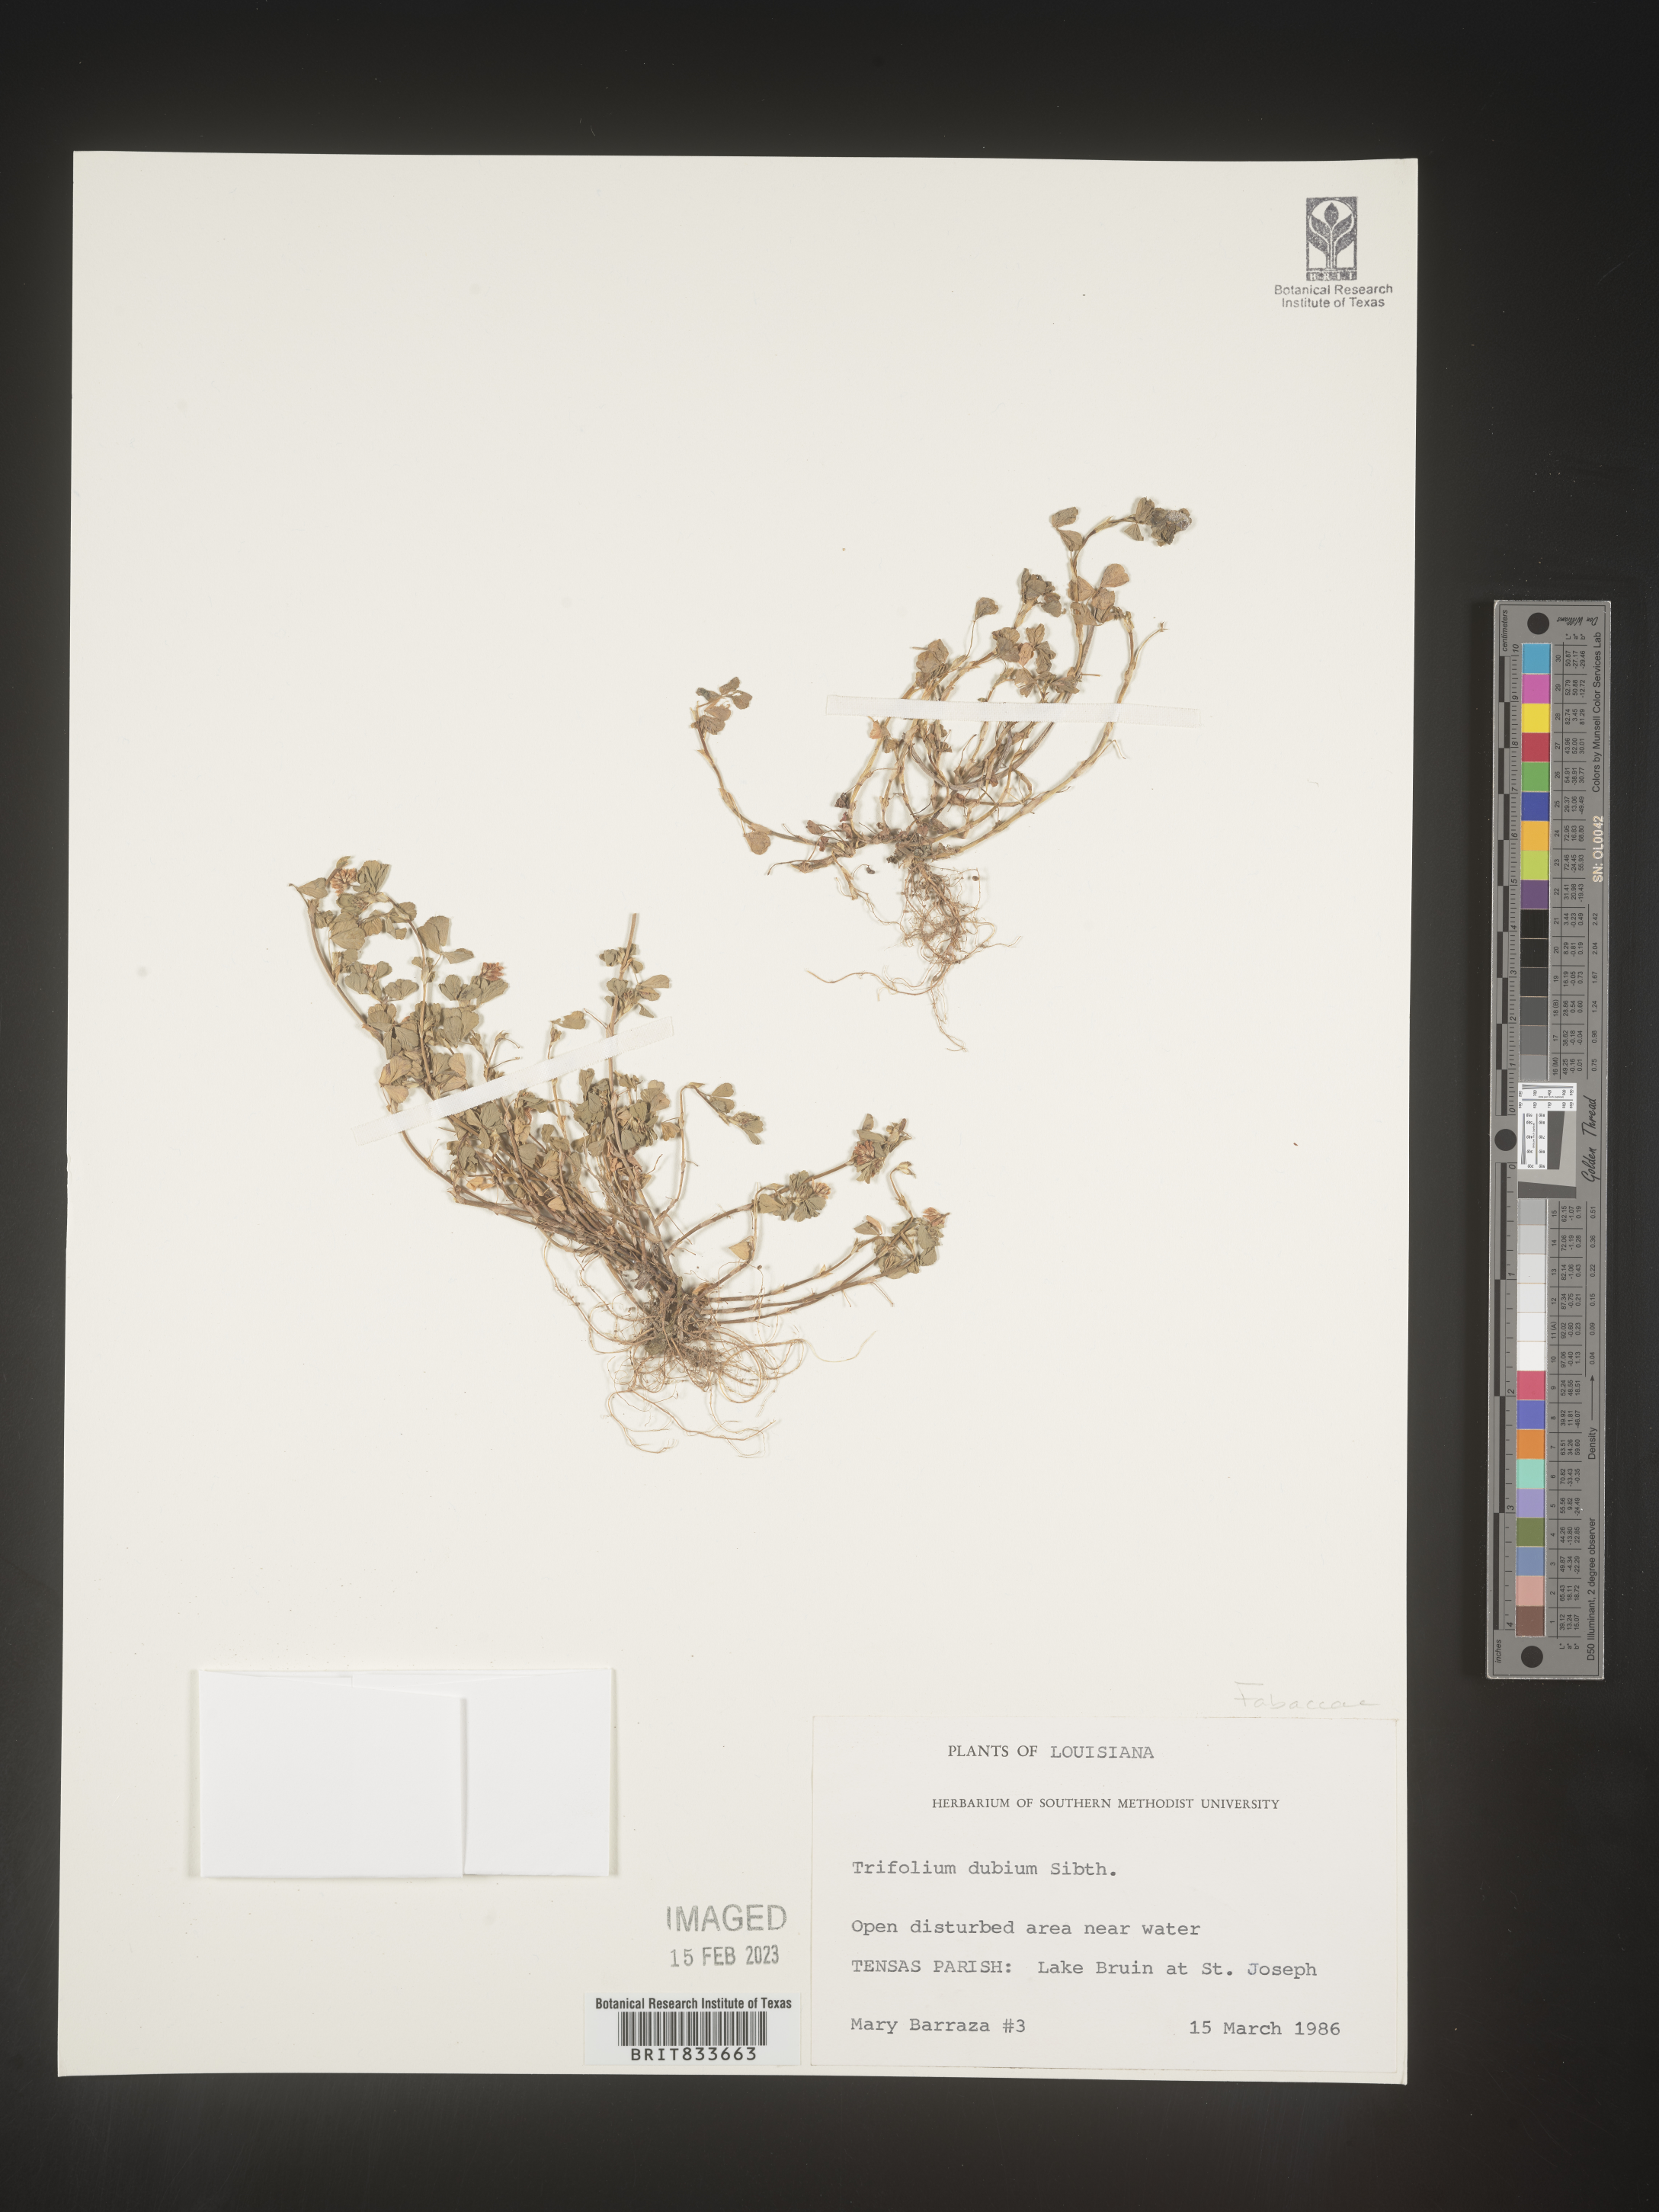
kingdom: Plantae
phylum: Tracheophyta
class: Magnoliopsida
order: Fabales
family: Fabaceae
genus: Trifolium
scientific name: Trifolium dubium
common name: Suckling clover
